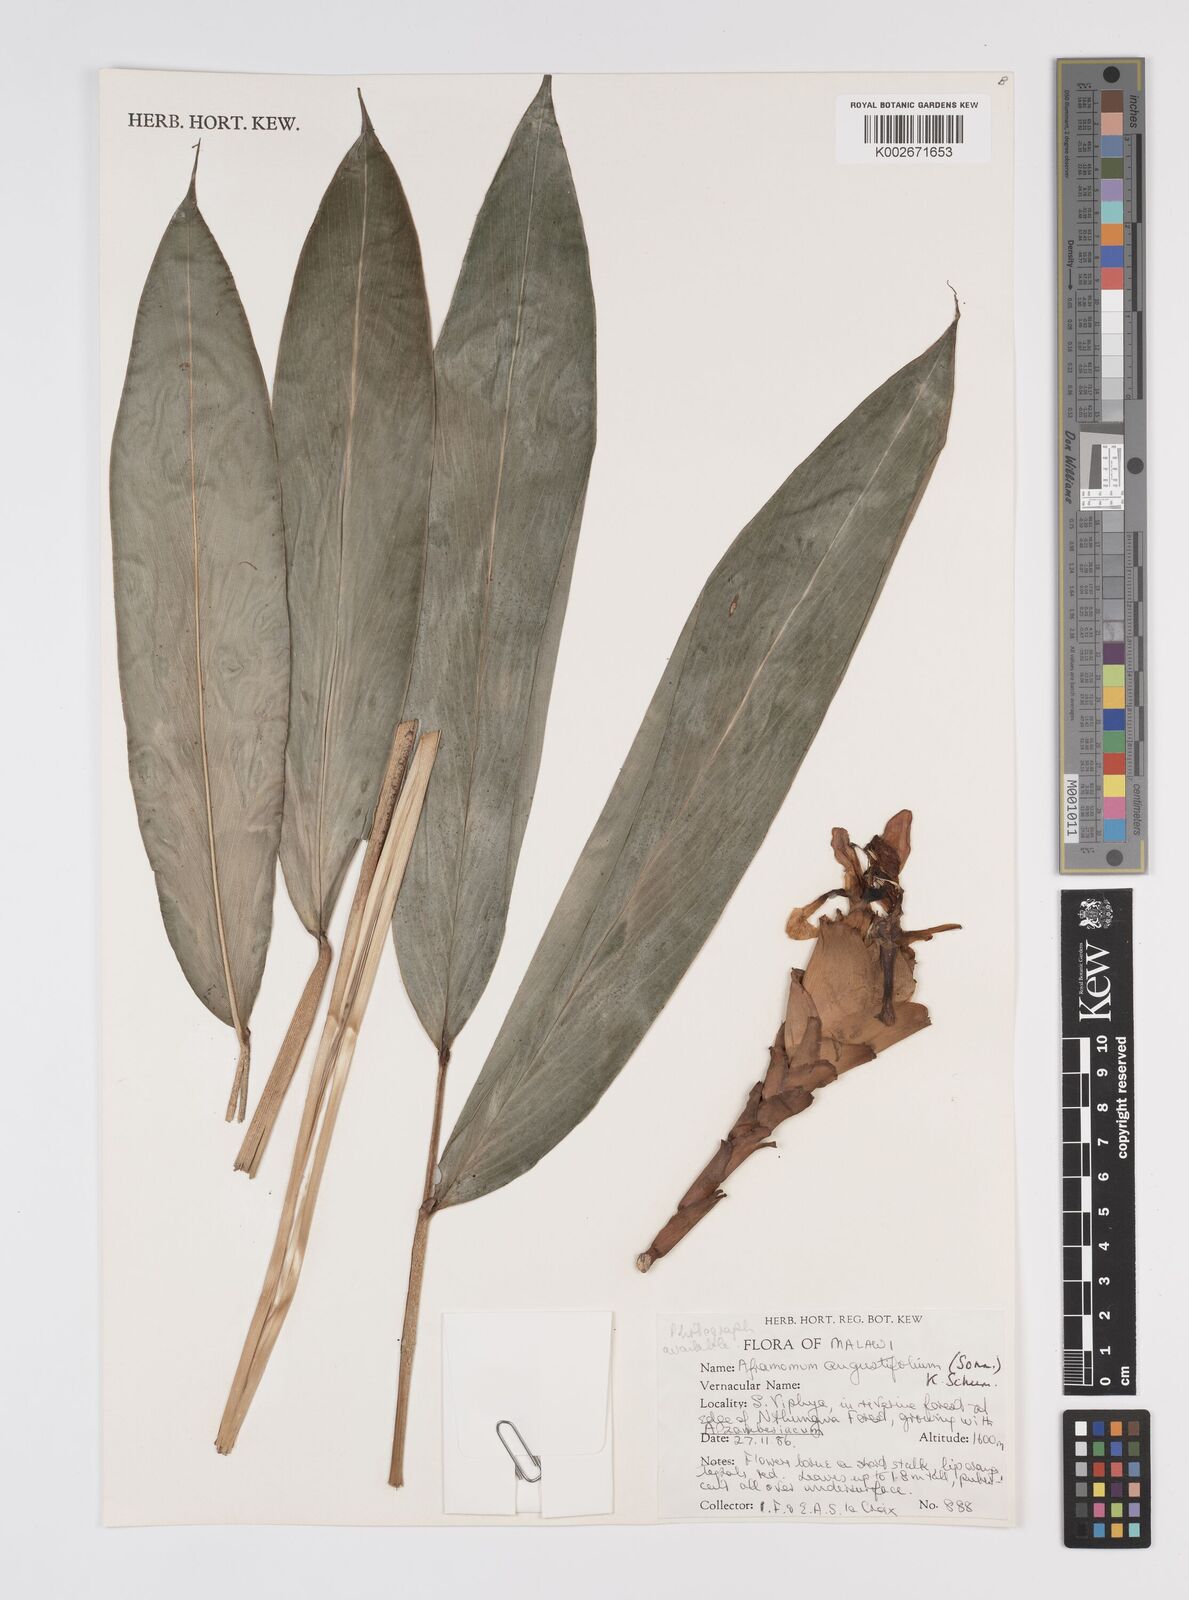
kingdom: Plantae
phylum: Tracheophyta
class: Liliopsida
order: Zingiberales
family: Zingiberaceae
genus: Aframomum
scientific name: Aframomum angustifolium
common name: Guinea grains
